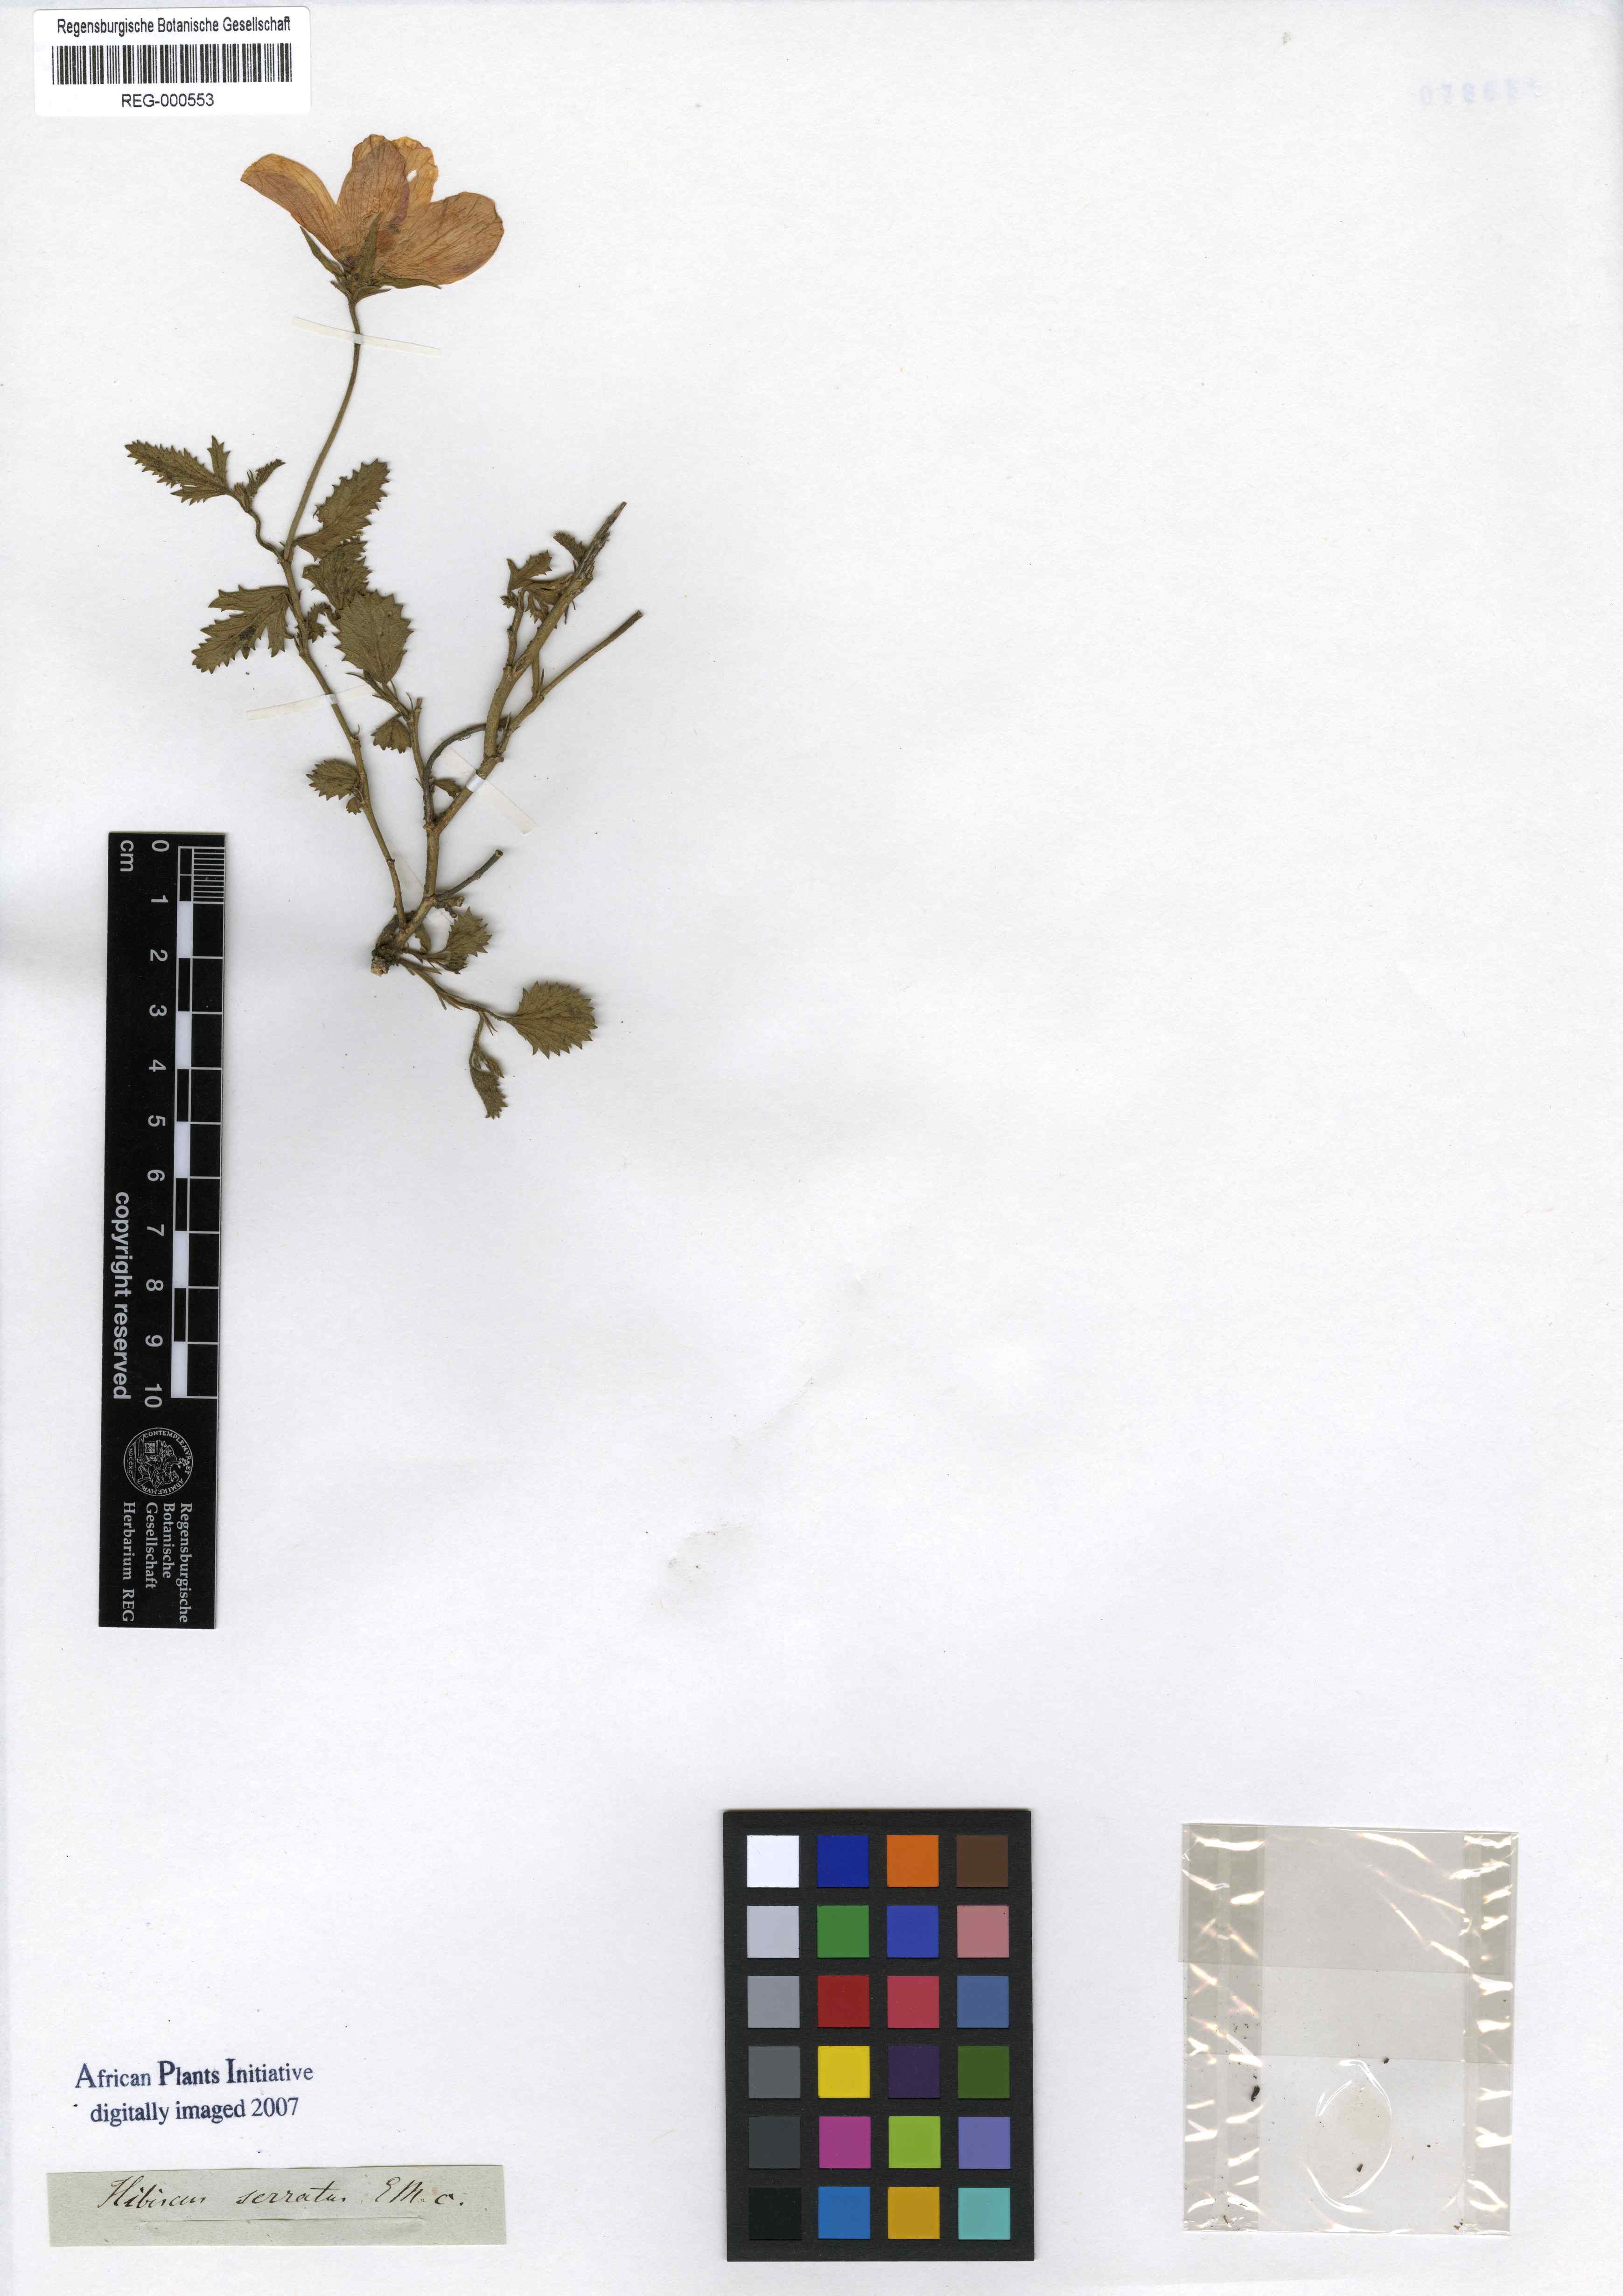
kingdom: Plantae
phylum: Tracheophyta
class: Magnoliopsida
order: Malvales
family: Malvaceae
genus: Hibiscus
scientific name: Hibiscus
